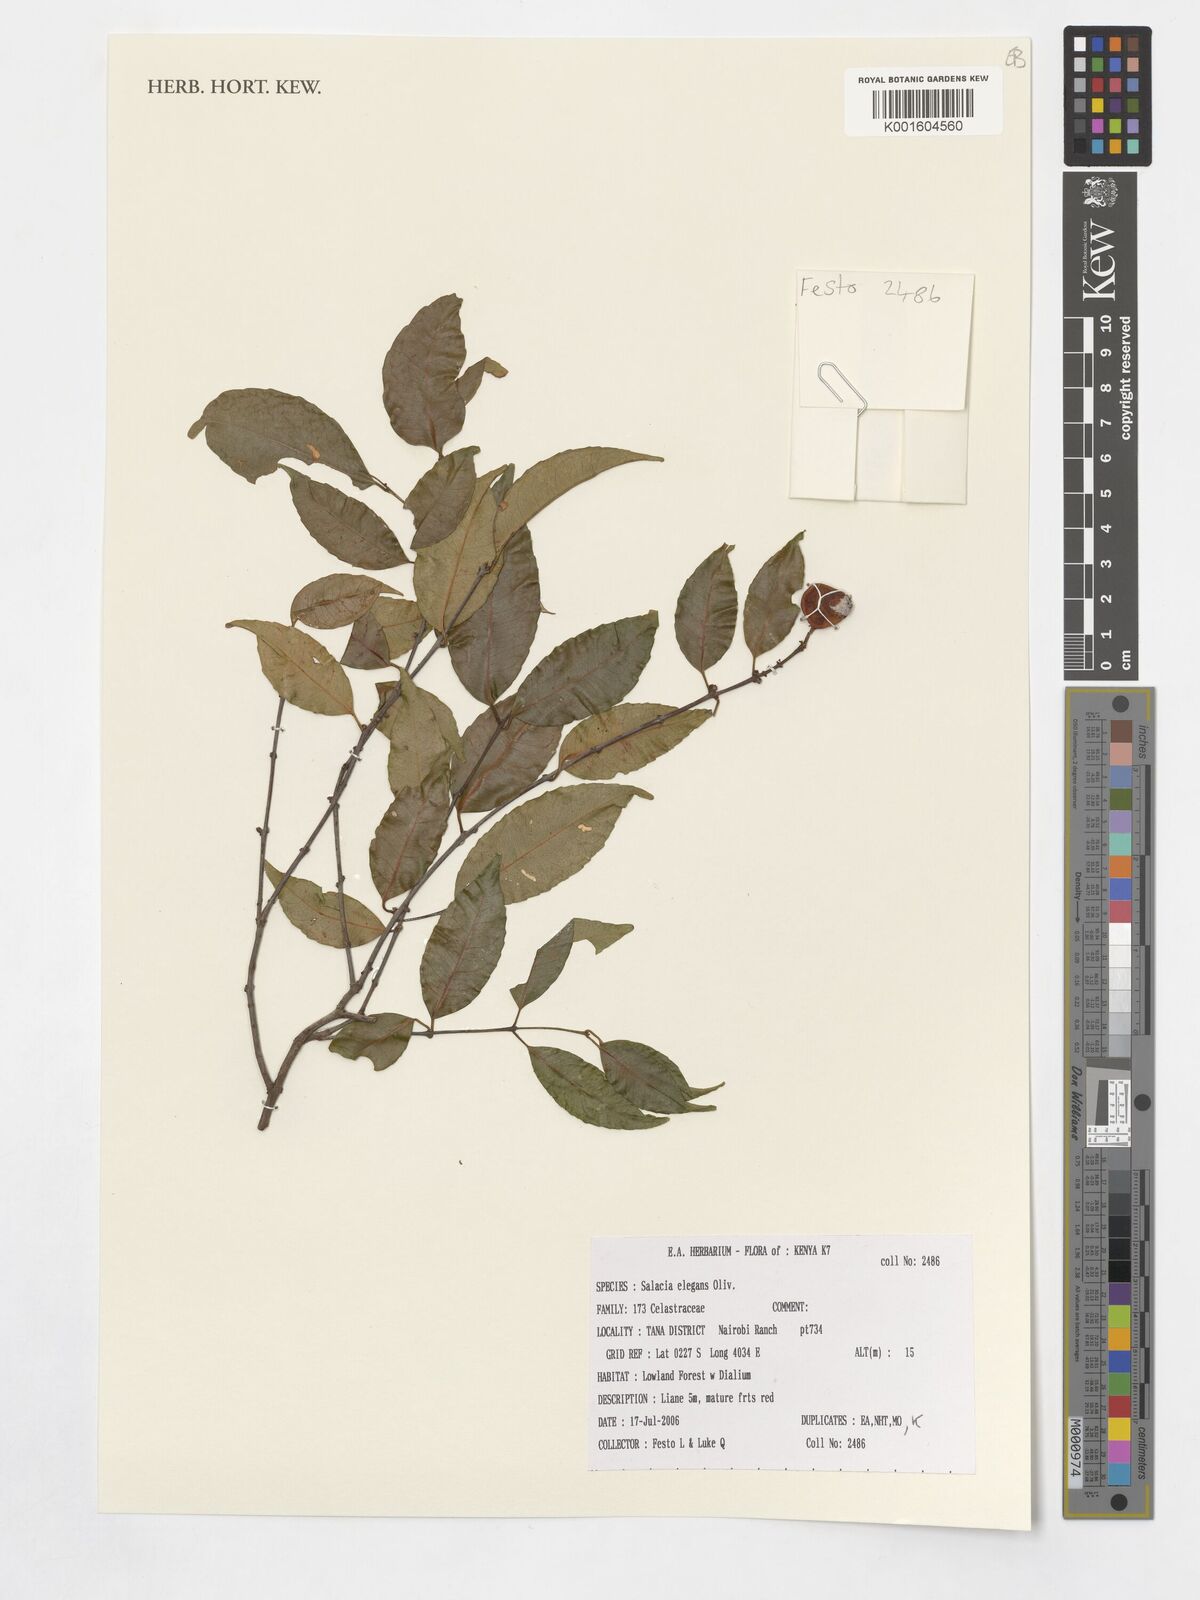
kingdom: Plantae
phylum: Tracheophyta
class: Magnoliopsida
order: Celastrales
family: Celastraceae
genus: Salacia
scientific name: Salacia elegans
